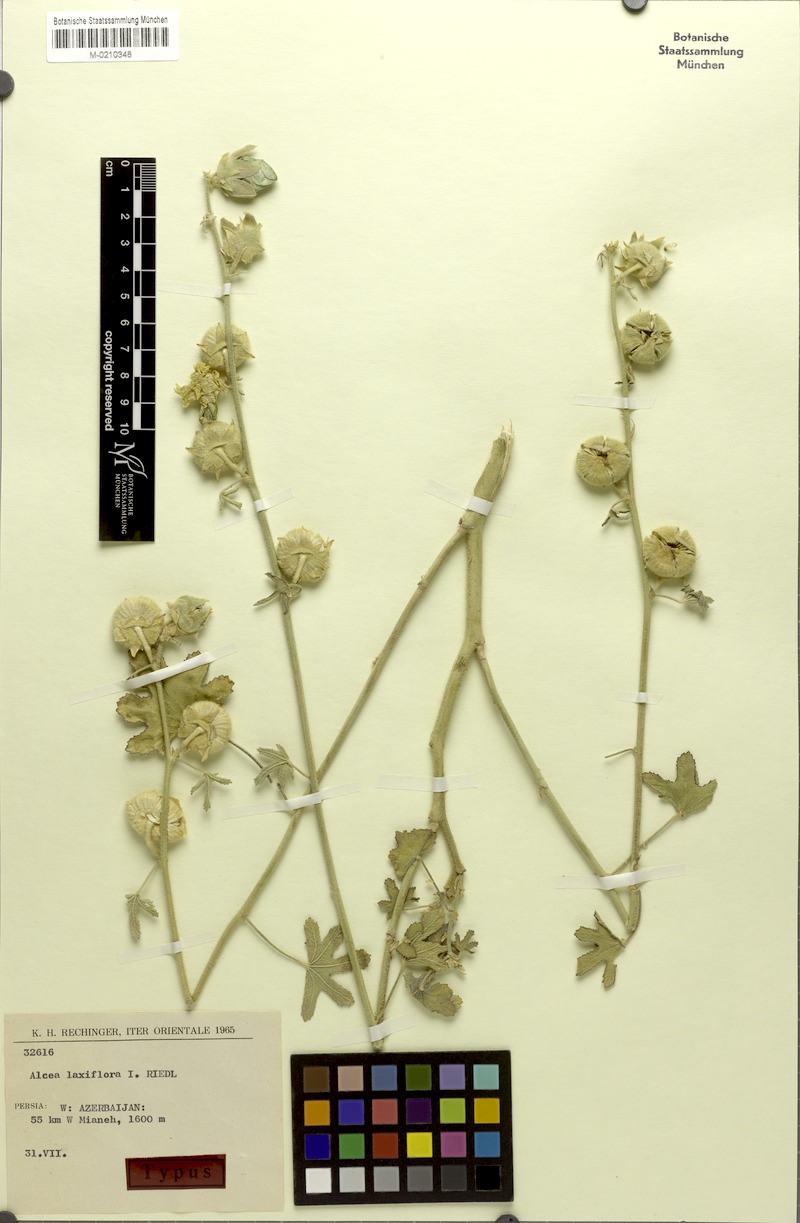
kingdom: Plantae
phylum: Tracheophyta
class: Magnoliopsida
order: Malvales
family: Malvaceae
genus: Alcea
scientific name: Alcea kurdica
